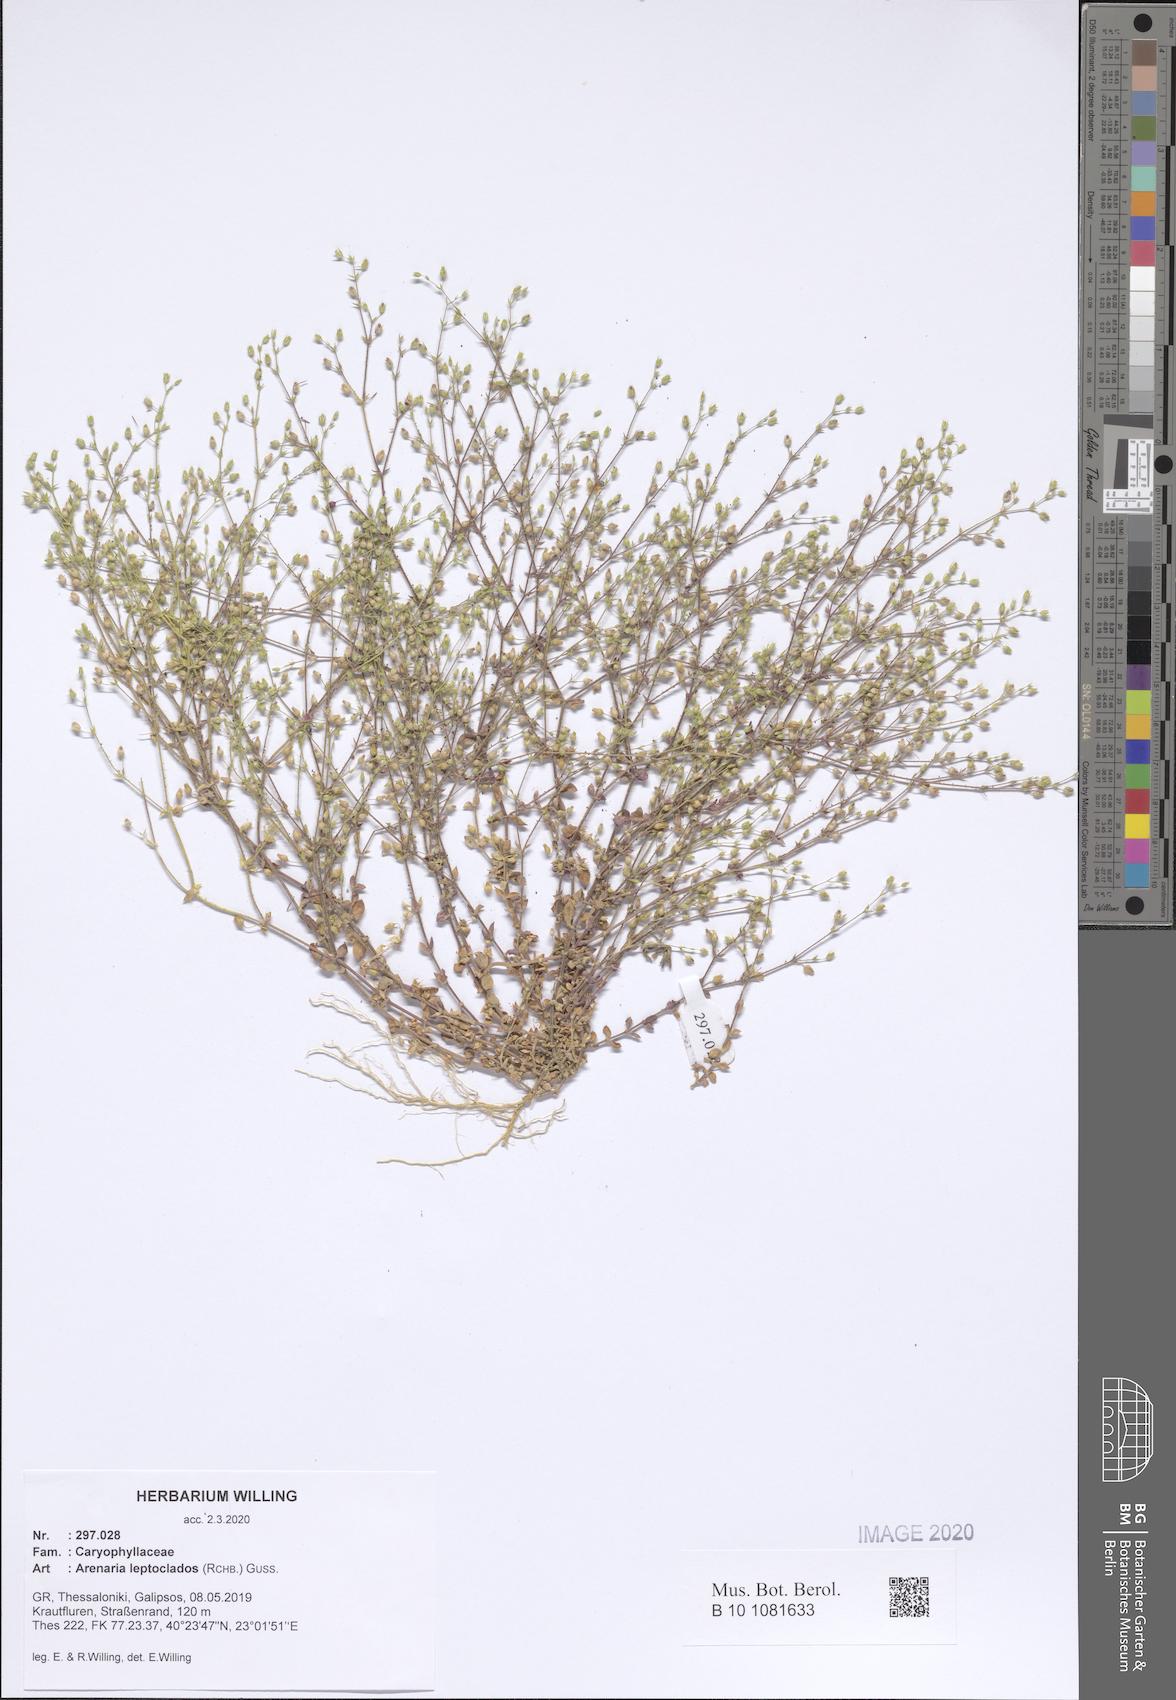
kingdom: Plantae
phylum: Tracheophyta
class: Magnoliopsida
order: Caryophyllales
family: Caryophyllaceae
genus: Arenaria
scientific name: Arenaria leptoclados
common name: Thyme-leaved sandwort
